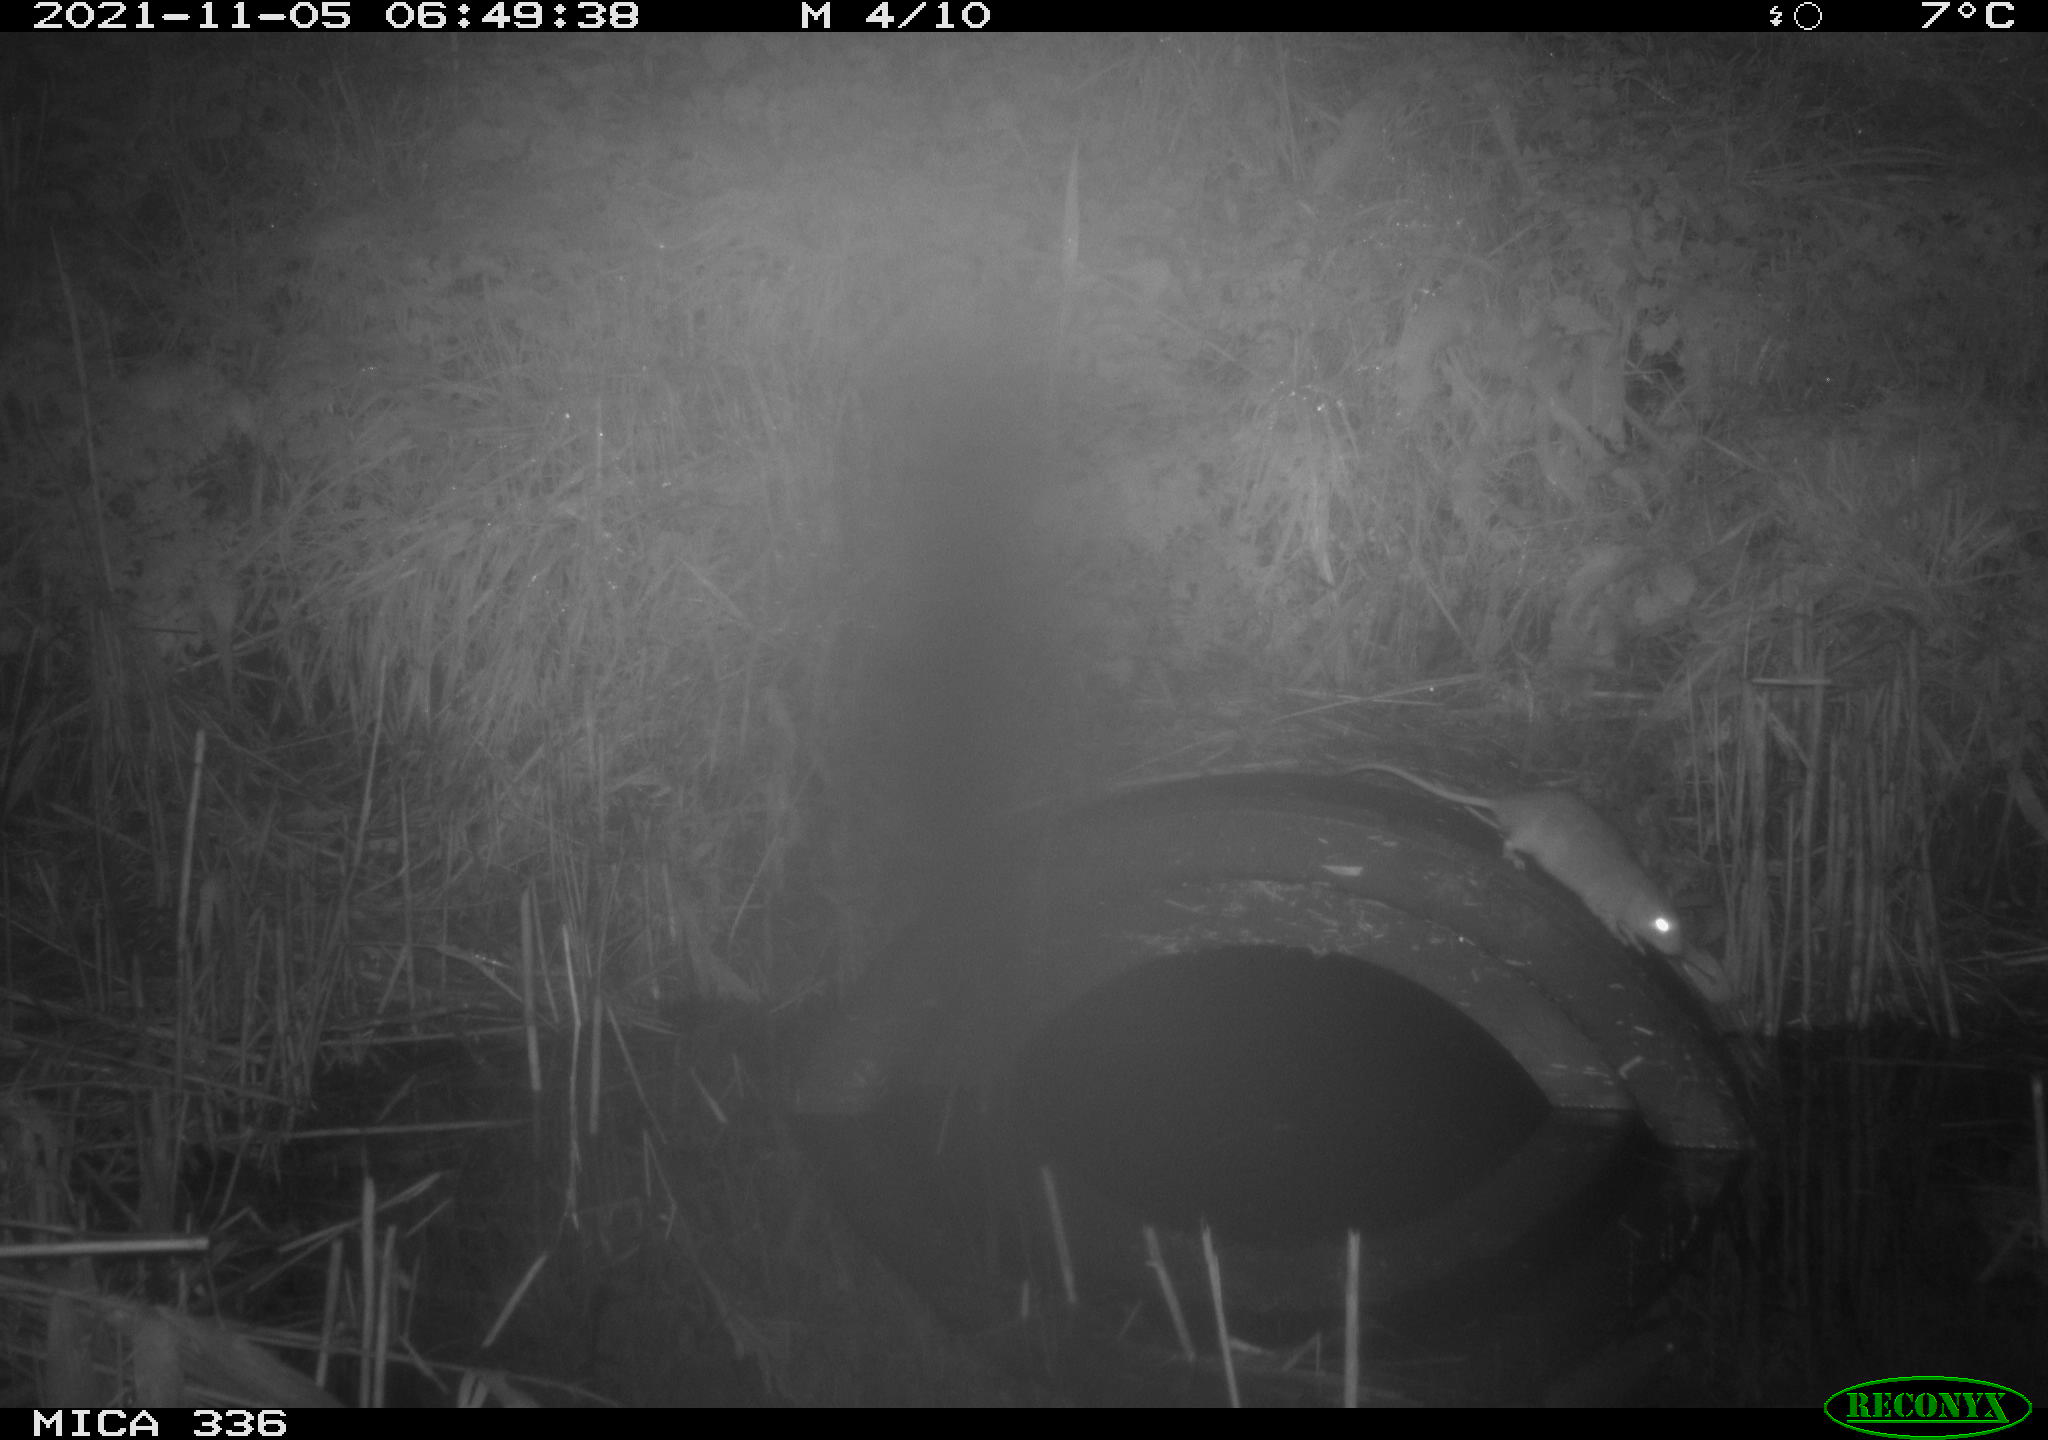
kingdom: Animalia
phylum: Chordata
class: Mammalia
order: Rodentia
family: Muridae
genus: Rattus
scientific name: Rattus norvegicus
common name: Brown rat
